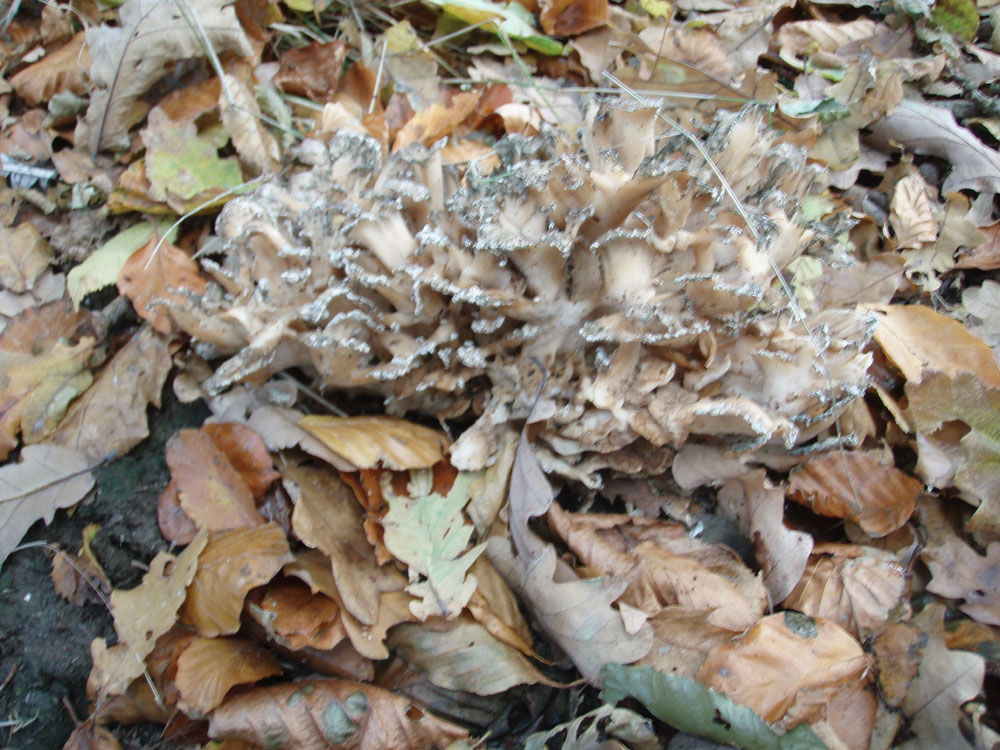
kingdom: Fungi
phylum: Basidiomycota
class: Agaricomycetes
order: Polyporales
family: Grifolaceae
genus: Grifola
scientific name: Grifola frondosa
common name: tueporesvamp
